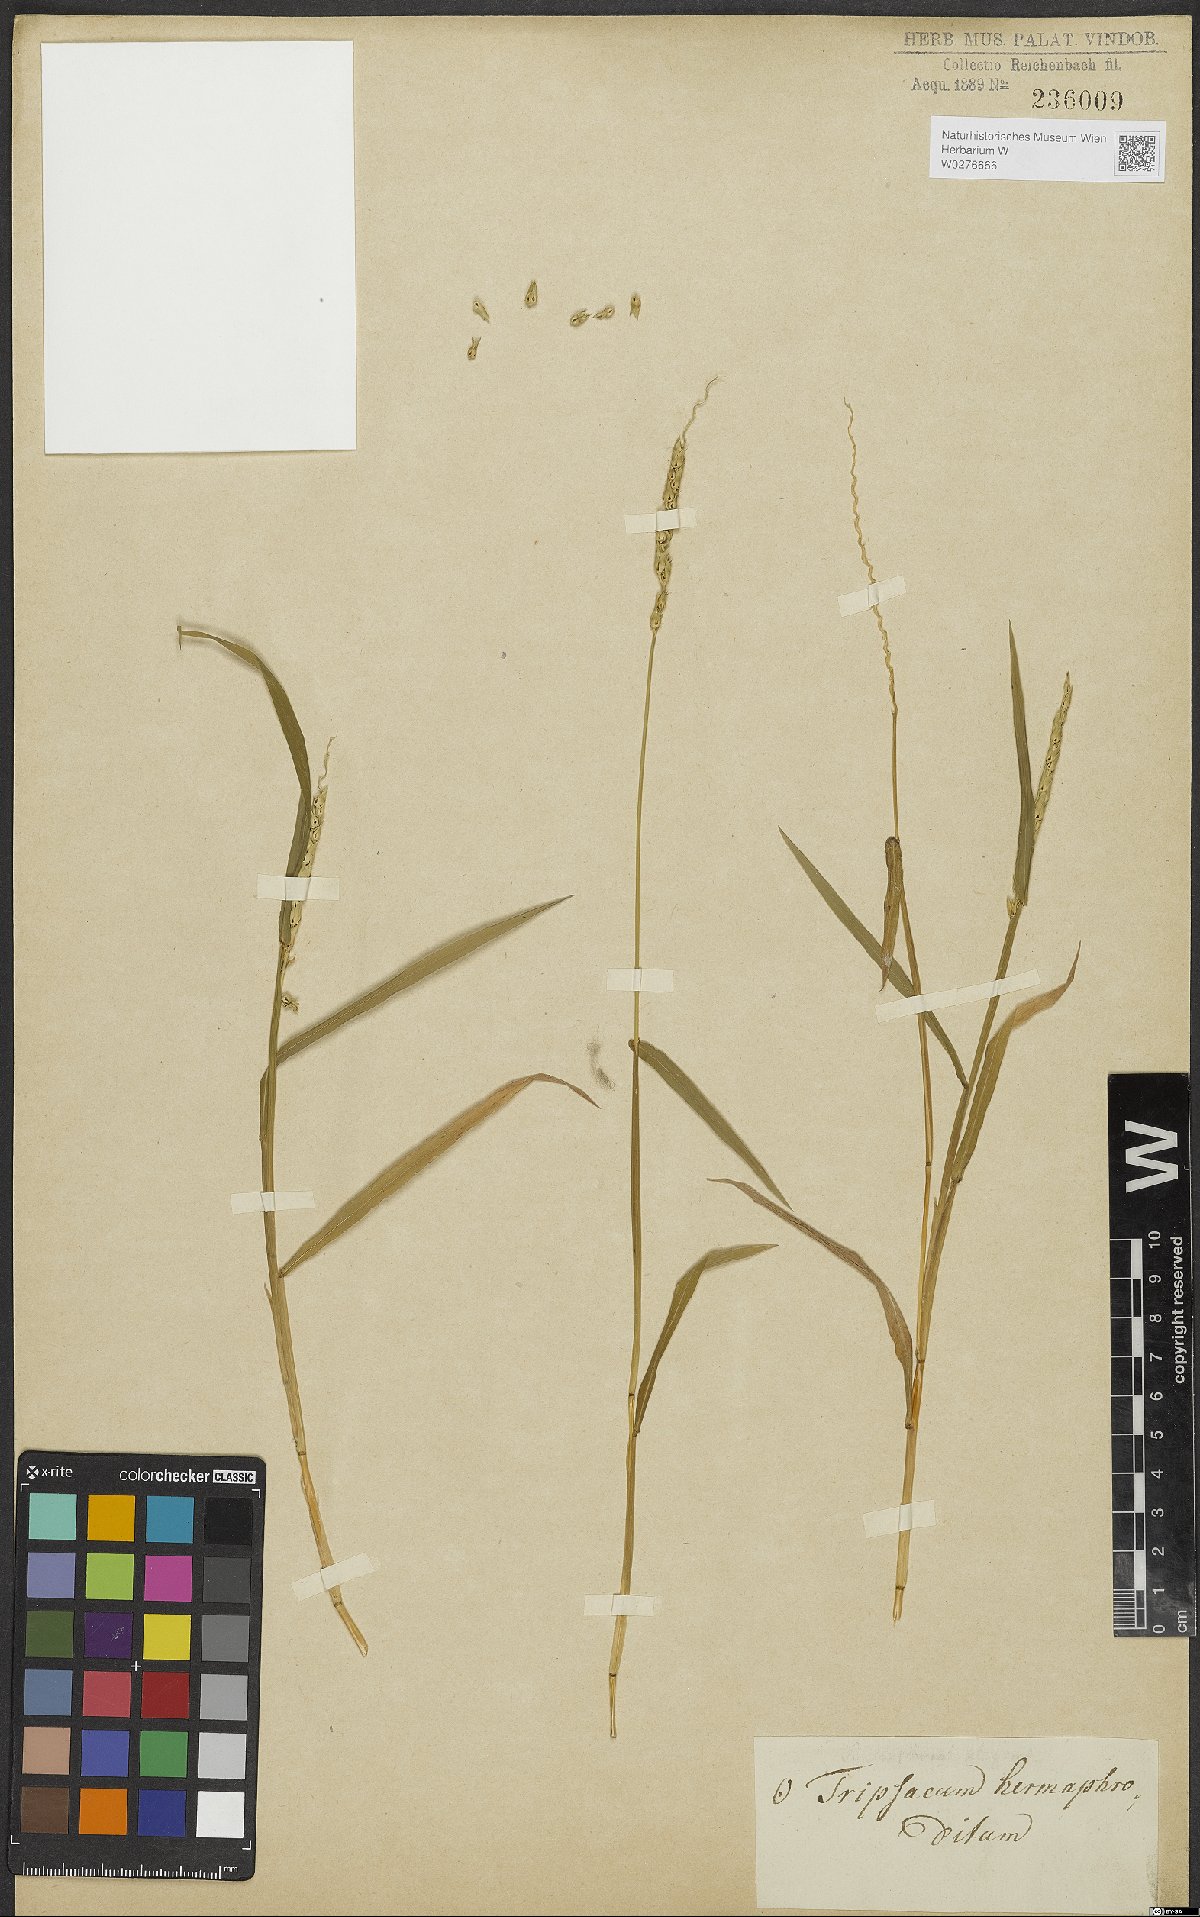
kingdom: Plantae
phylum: Tracheophyta
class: Liliopsida
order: Poales
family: Poaceae
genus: Anthephora
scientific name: Anthephora hermaphrodita
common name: Oldfield grass
